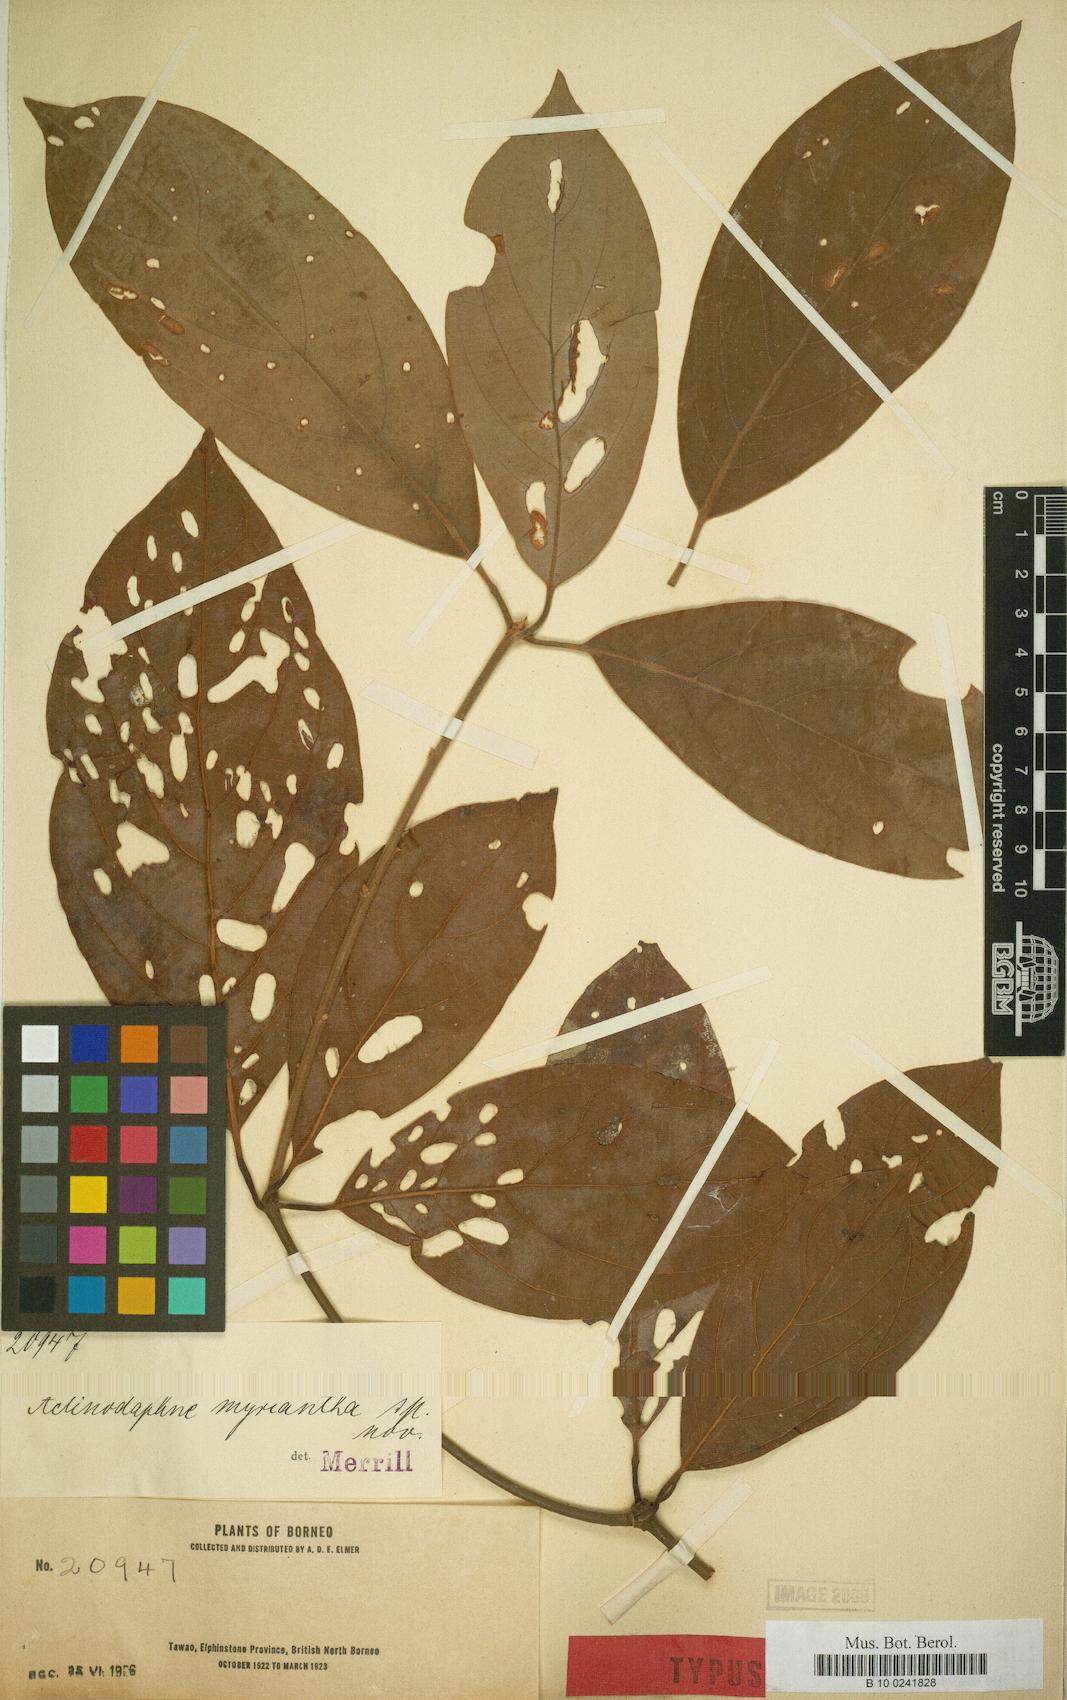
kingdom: Plantae
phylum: Tracheophyta
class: Magnoliopsida
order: Laurales
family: Lauraceae
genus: Actinodaphne
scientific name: Actinodaphne myriantha
